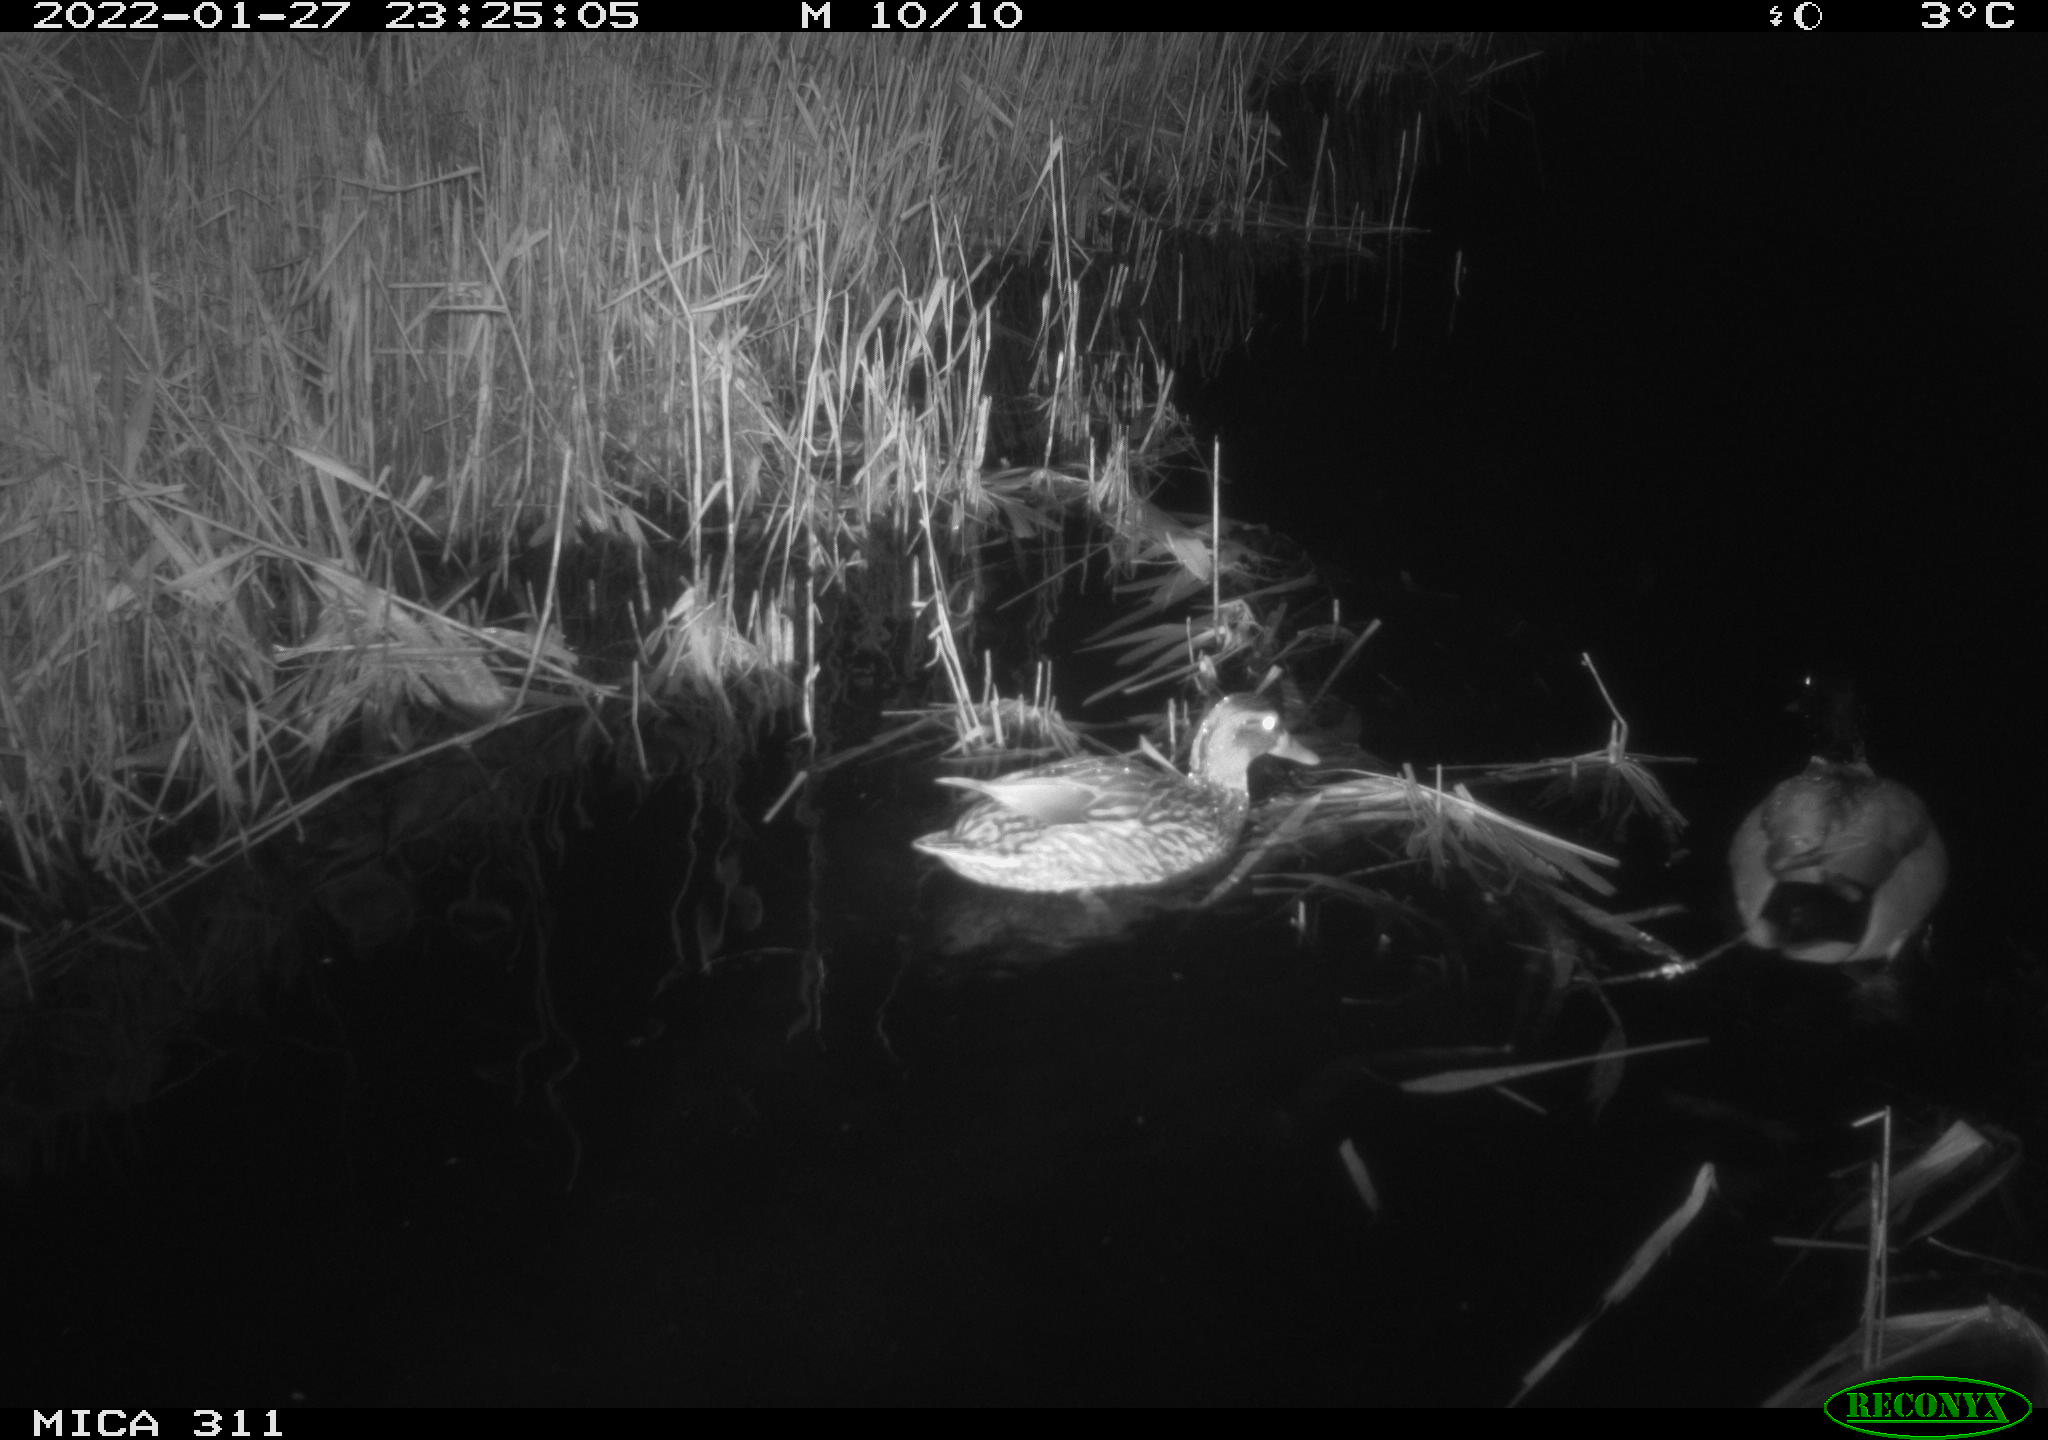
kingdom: Animalia
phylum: Chordata
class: Aves
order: Anseriformes
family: Anatidae
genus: Anas
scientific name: Anas
